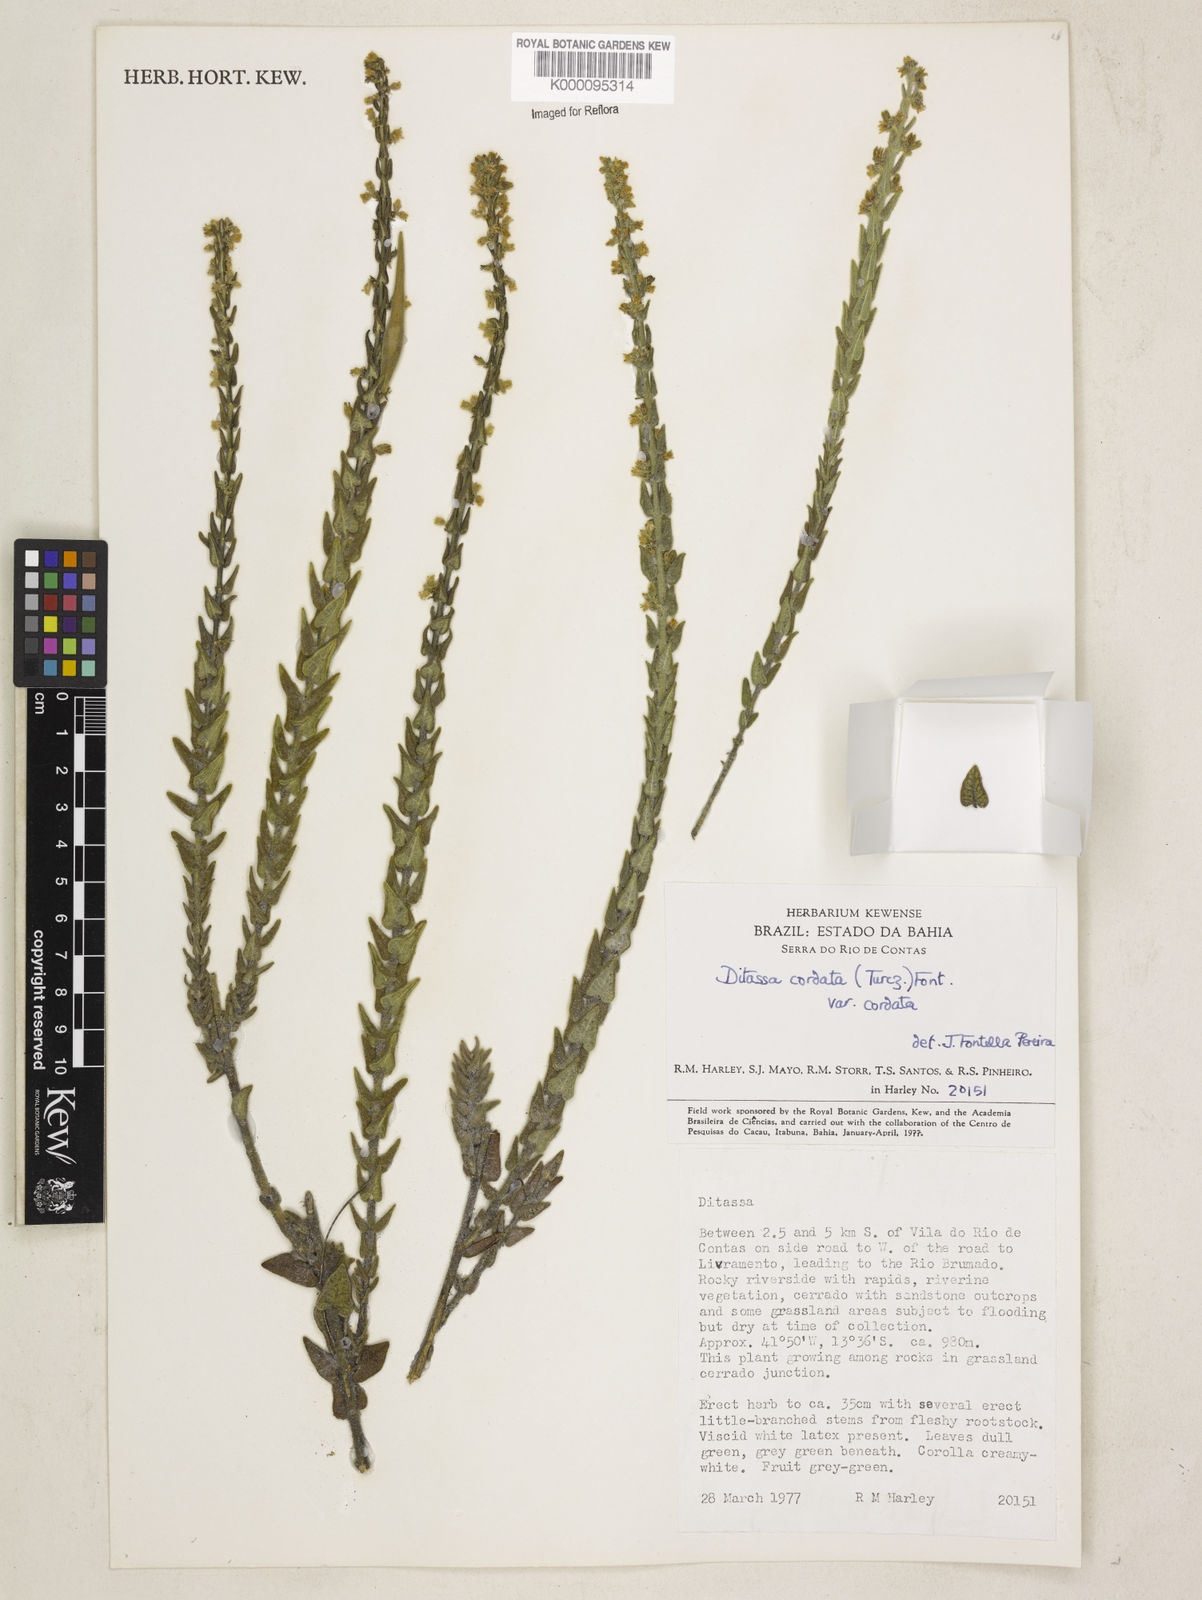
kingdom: Plantae
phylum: Tracheophyta
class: Magnoliopsida
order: Gentianales
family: Apocynaceae
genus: Minaria
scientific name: Minaria cordata
